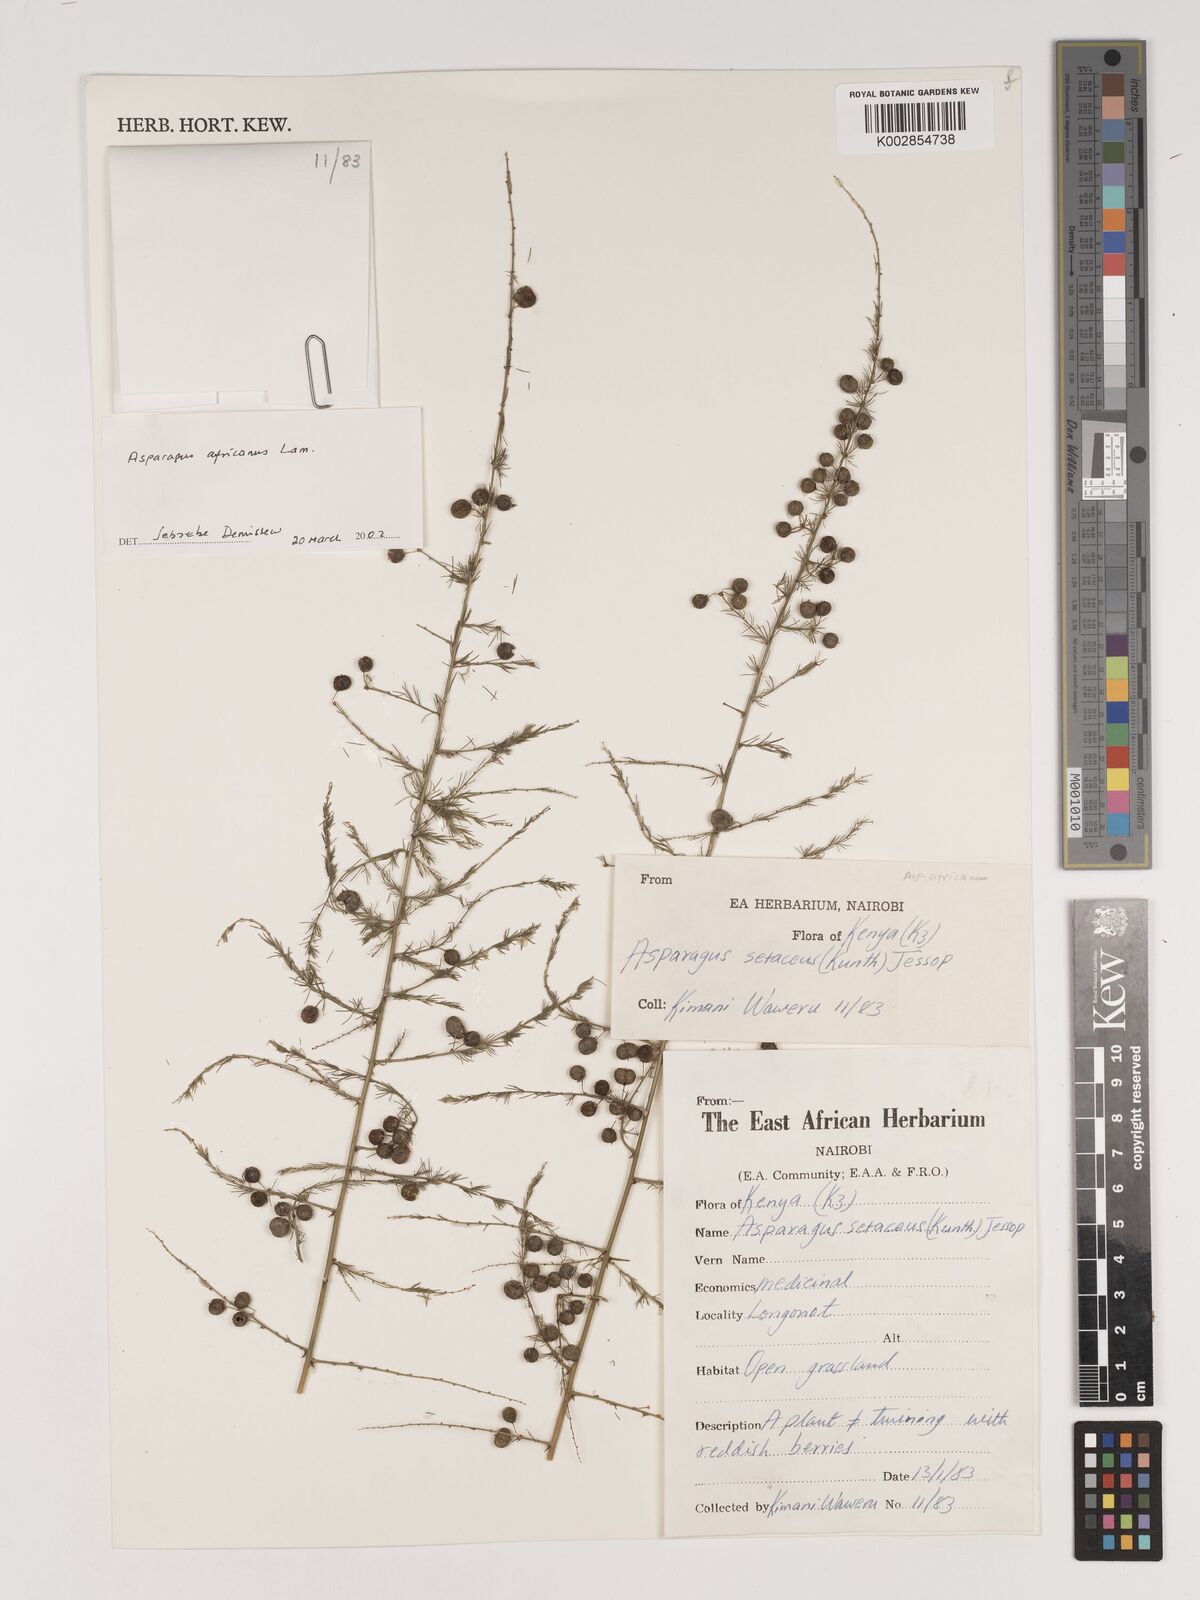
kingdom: Plantae
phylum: Tracheophyta
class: Liliopsida
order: Asparagales
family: Asparagaceae
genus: Asparagus
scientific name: Asparagus africanus
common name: Asparagus-fern
